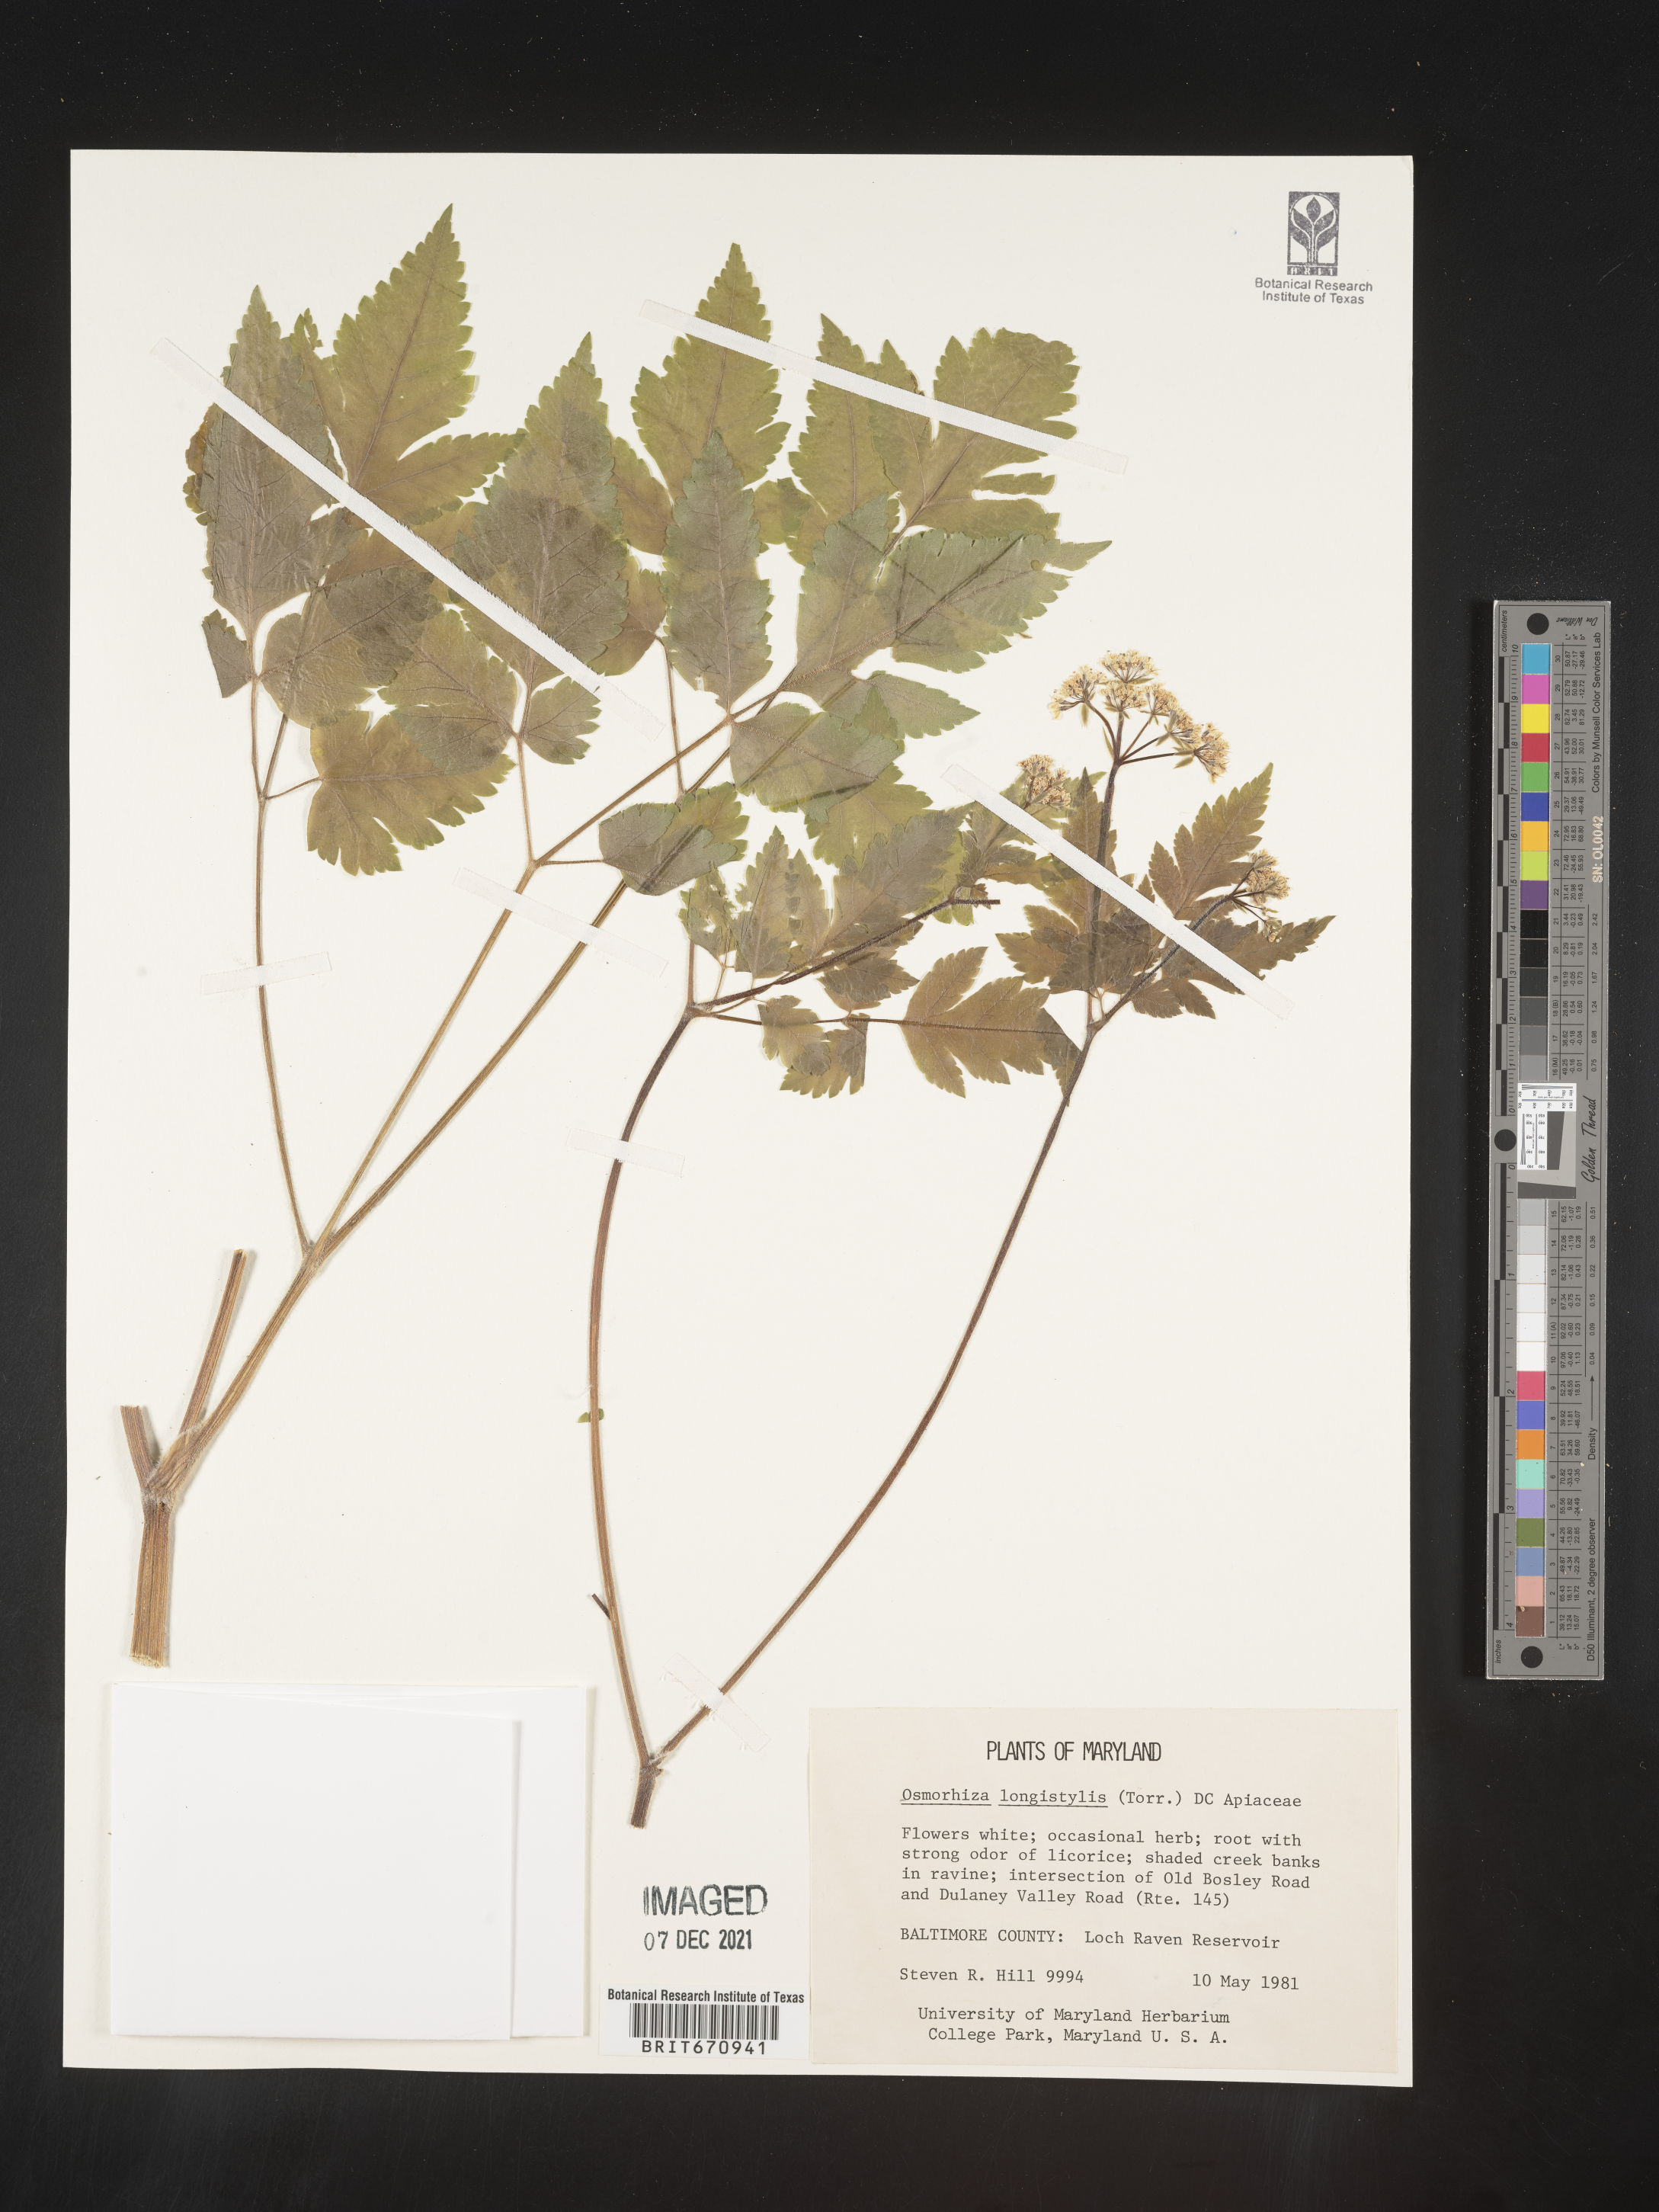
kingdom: Plantae
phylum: Tracheophyta
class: Magnoliopsida
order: Apiales
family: Apiaceae
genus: Osmorhiza
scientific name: Osmorhiza longistylis
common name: Smooth sweet cicely
